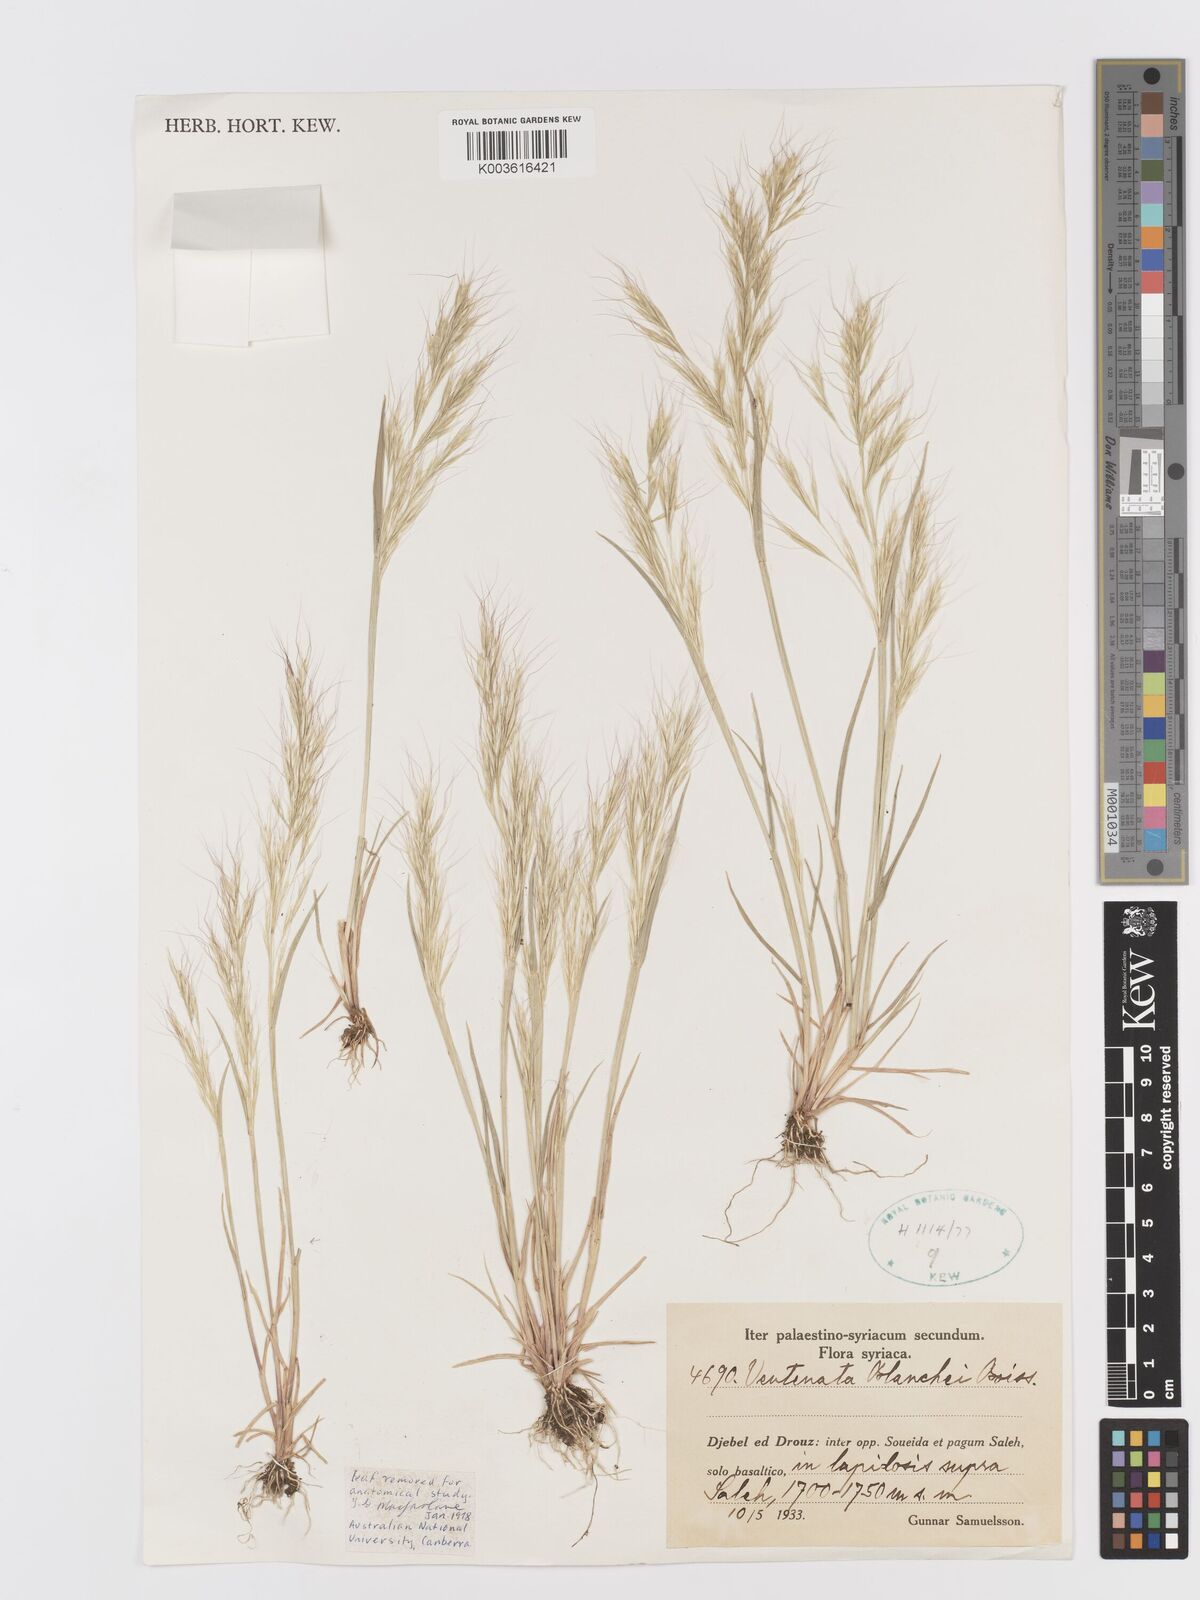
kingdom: Plantae
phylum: Tracheophyta
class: Liliopsida
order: Poales
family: Poaceae
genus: Ventenata
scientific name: Ventenata blanchei
